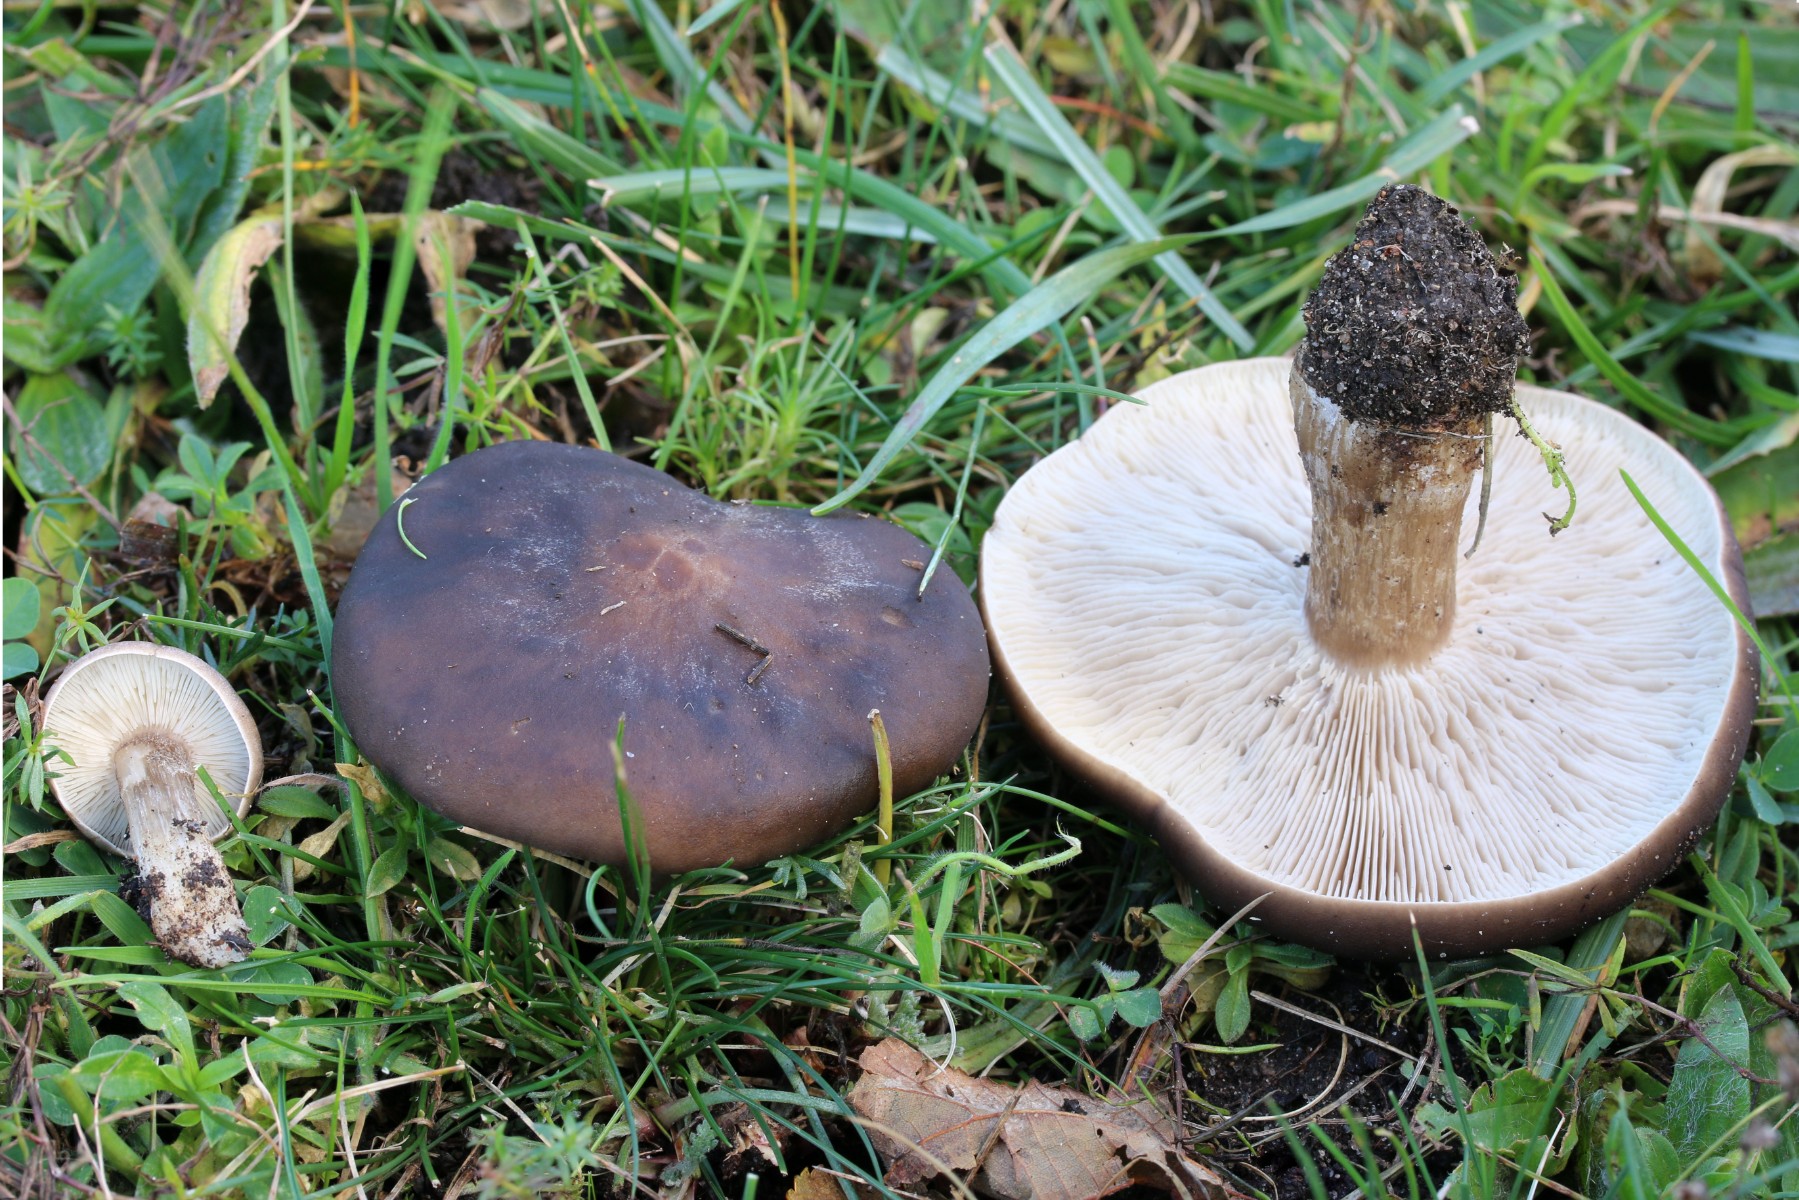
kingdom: Fungi
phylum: Basidiomycota
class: Agaricomycetes
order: Agaricales
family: Tricholomataceae
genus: Melanoleuca
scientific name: Melanoleuca
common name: munkehat
